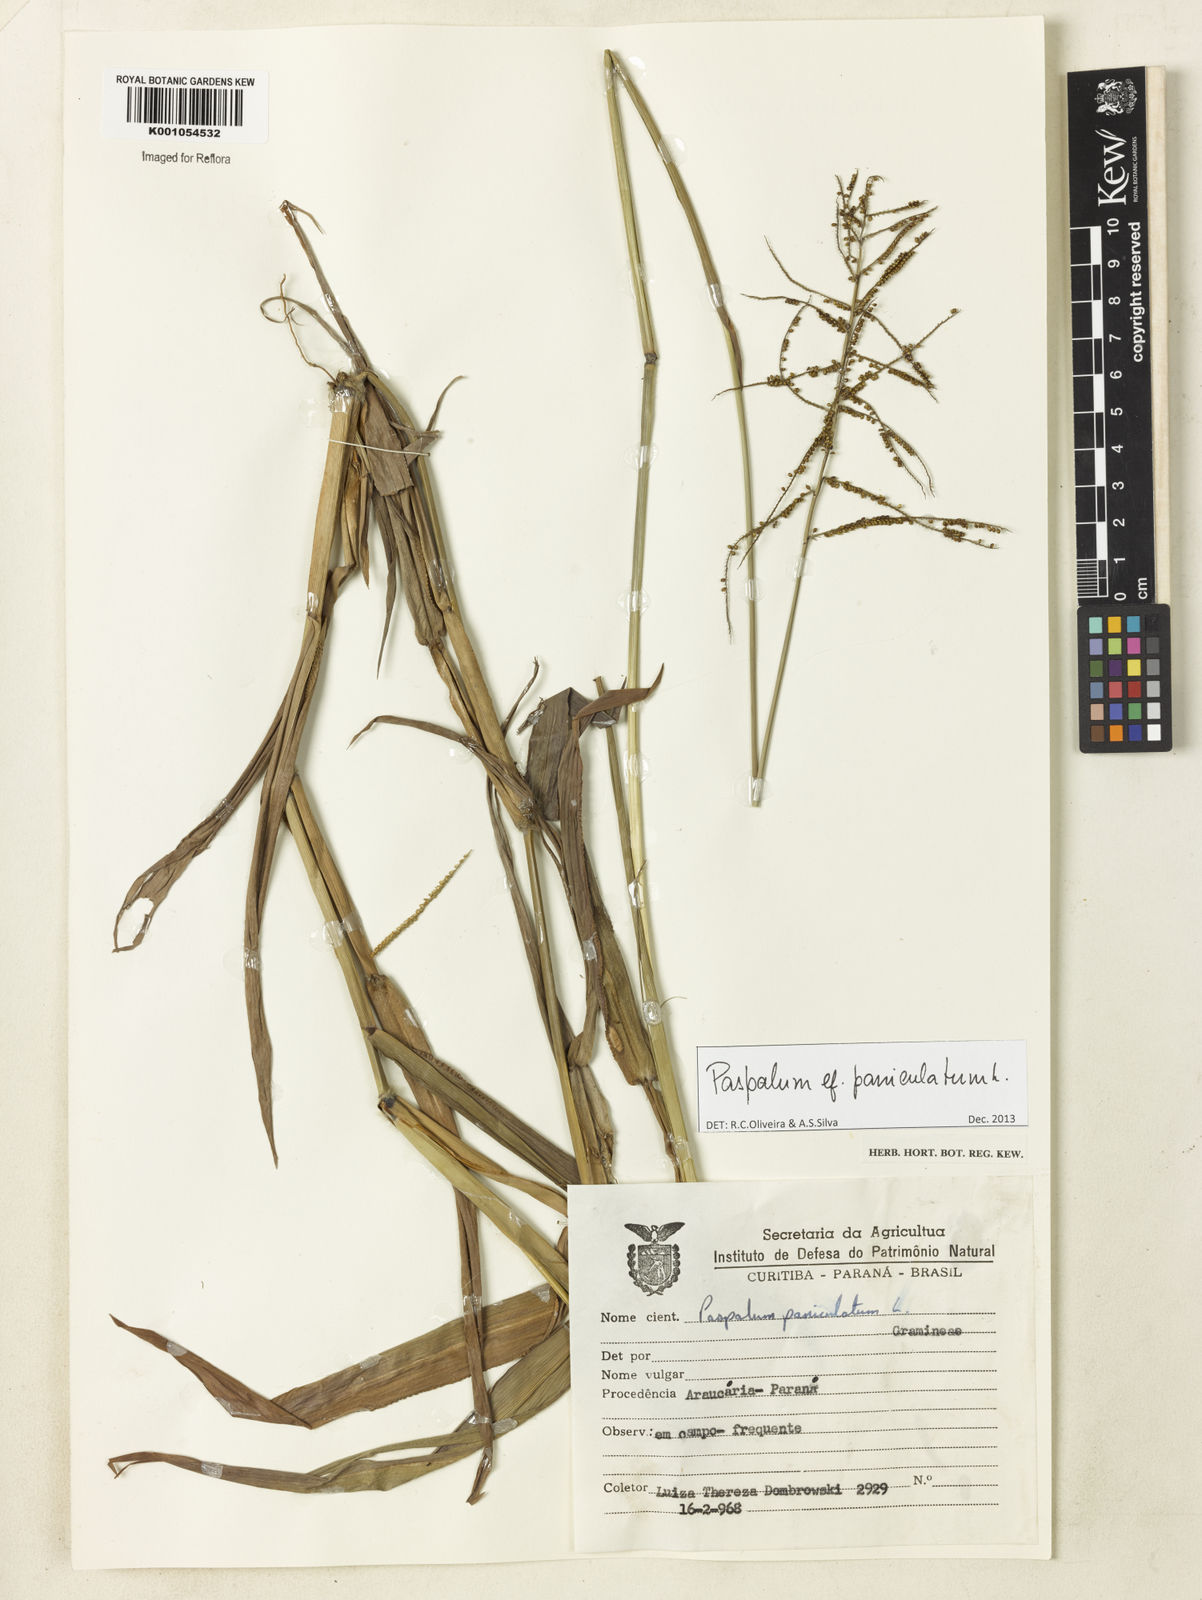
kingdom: Plantae
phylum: Tracheophyta
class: Liliopsida
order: Poales
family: Poaceae
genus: Paspalum
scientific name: Paspalum paniculatum
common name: Arrocillo
